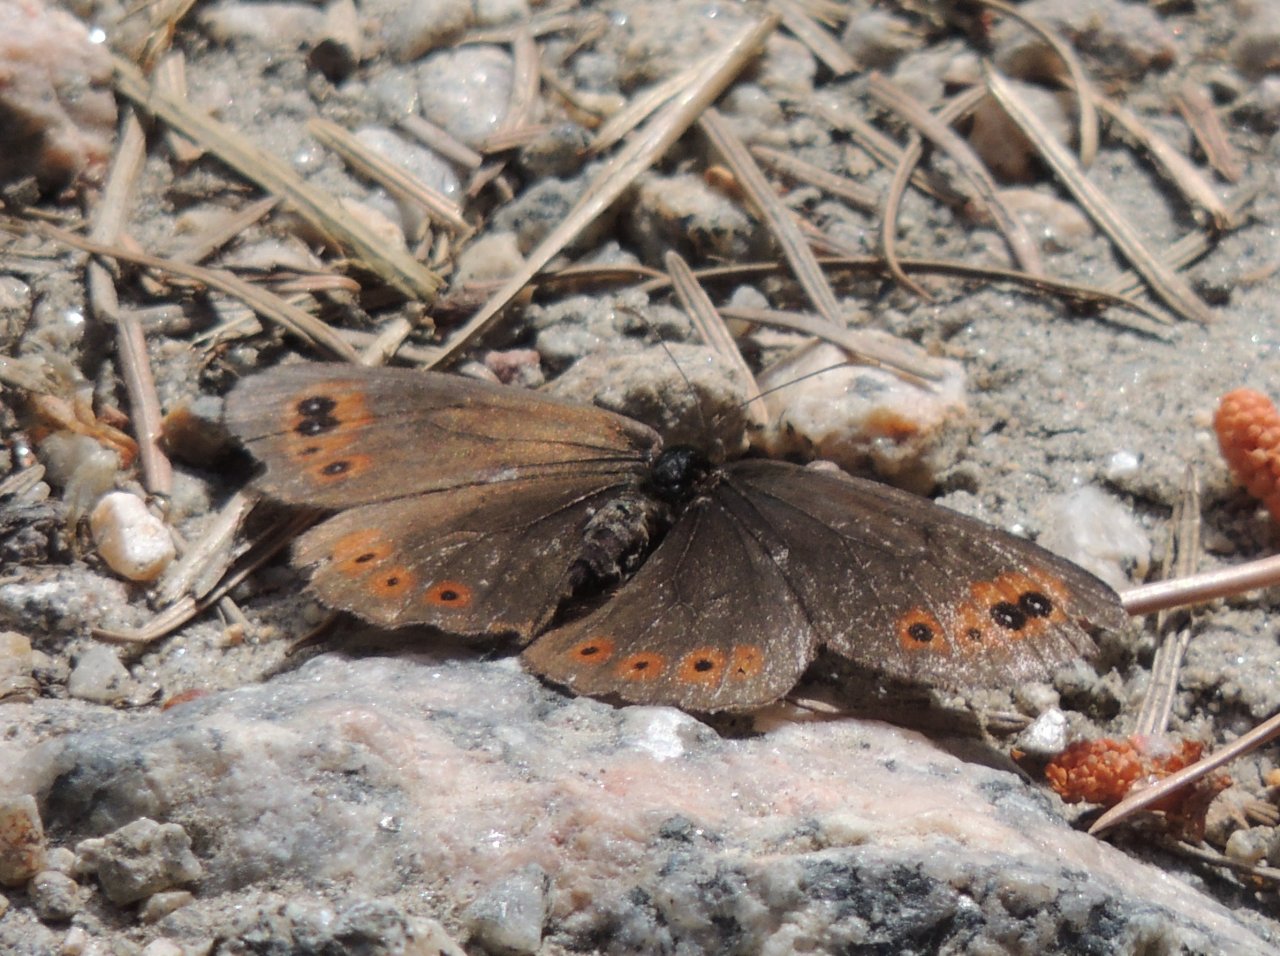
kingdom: Animalia
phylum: Arthropoda
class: Insecta
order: Lepidoptera
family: Nymphalidae
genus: Erebia
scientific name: Erebia epipsodea
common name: Common Alpine
